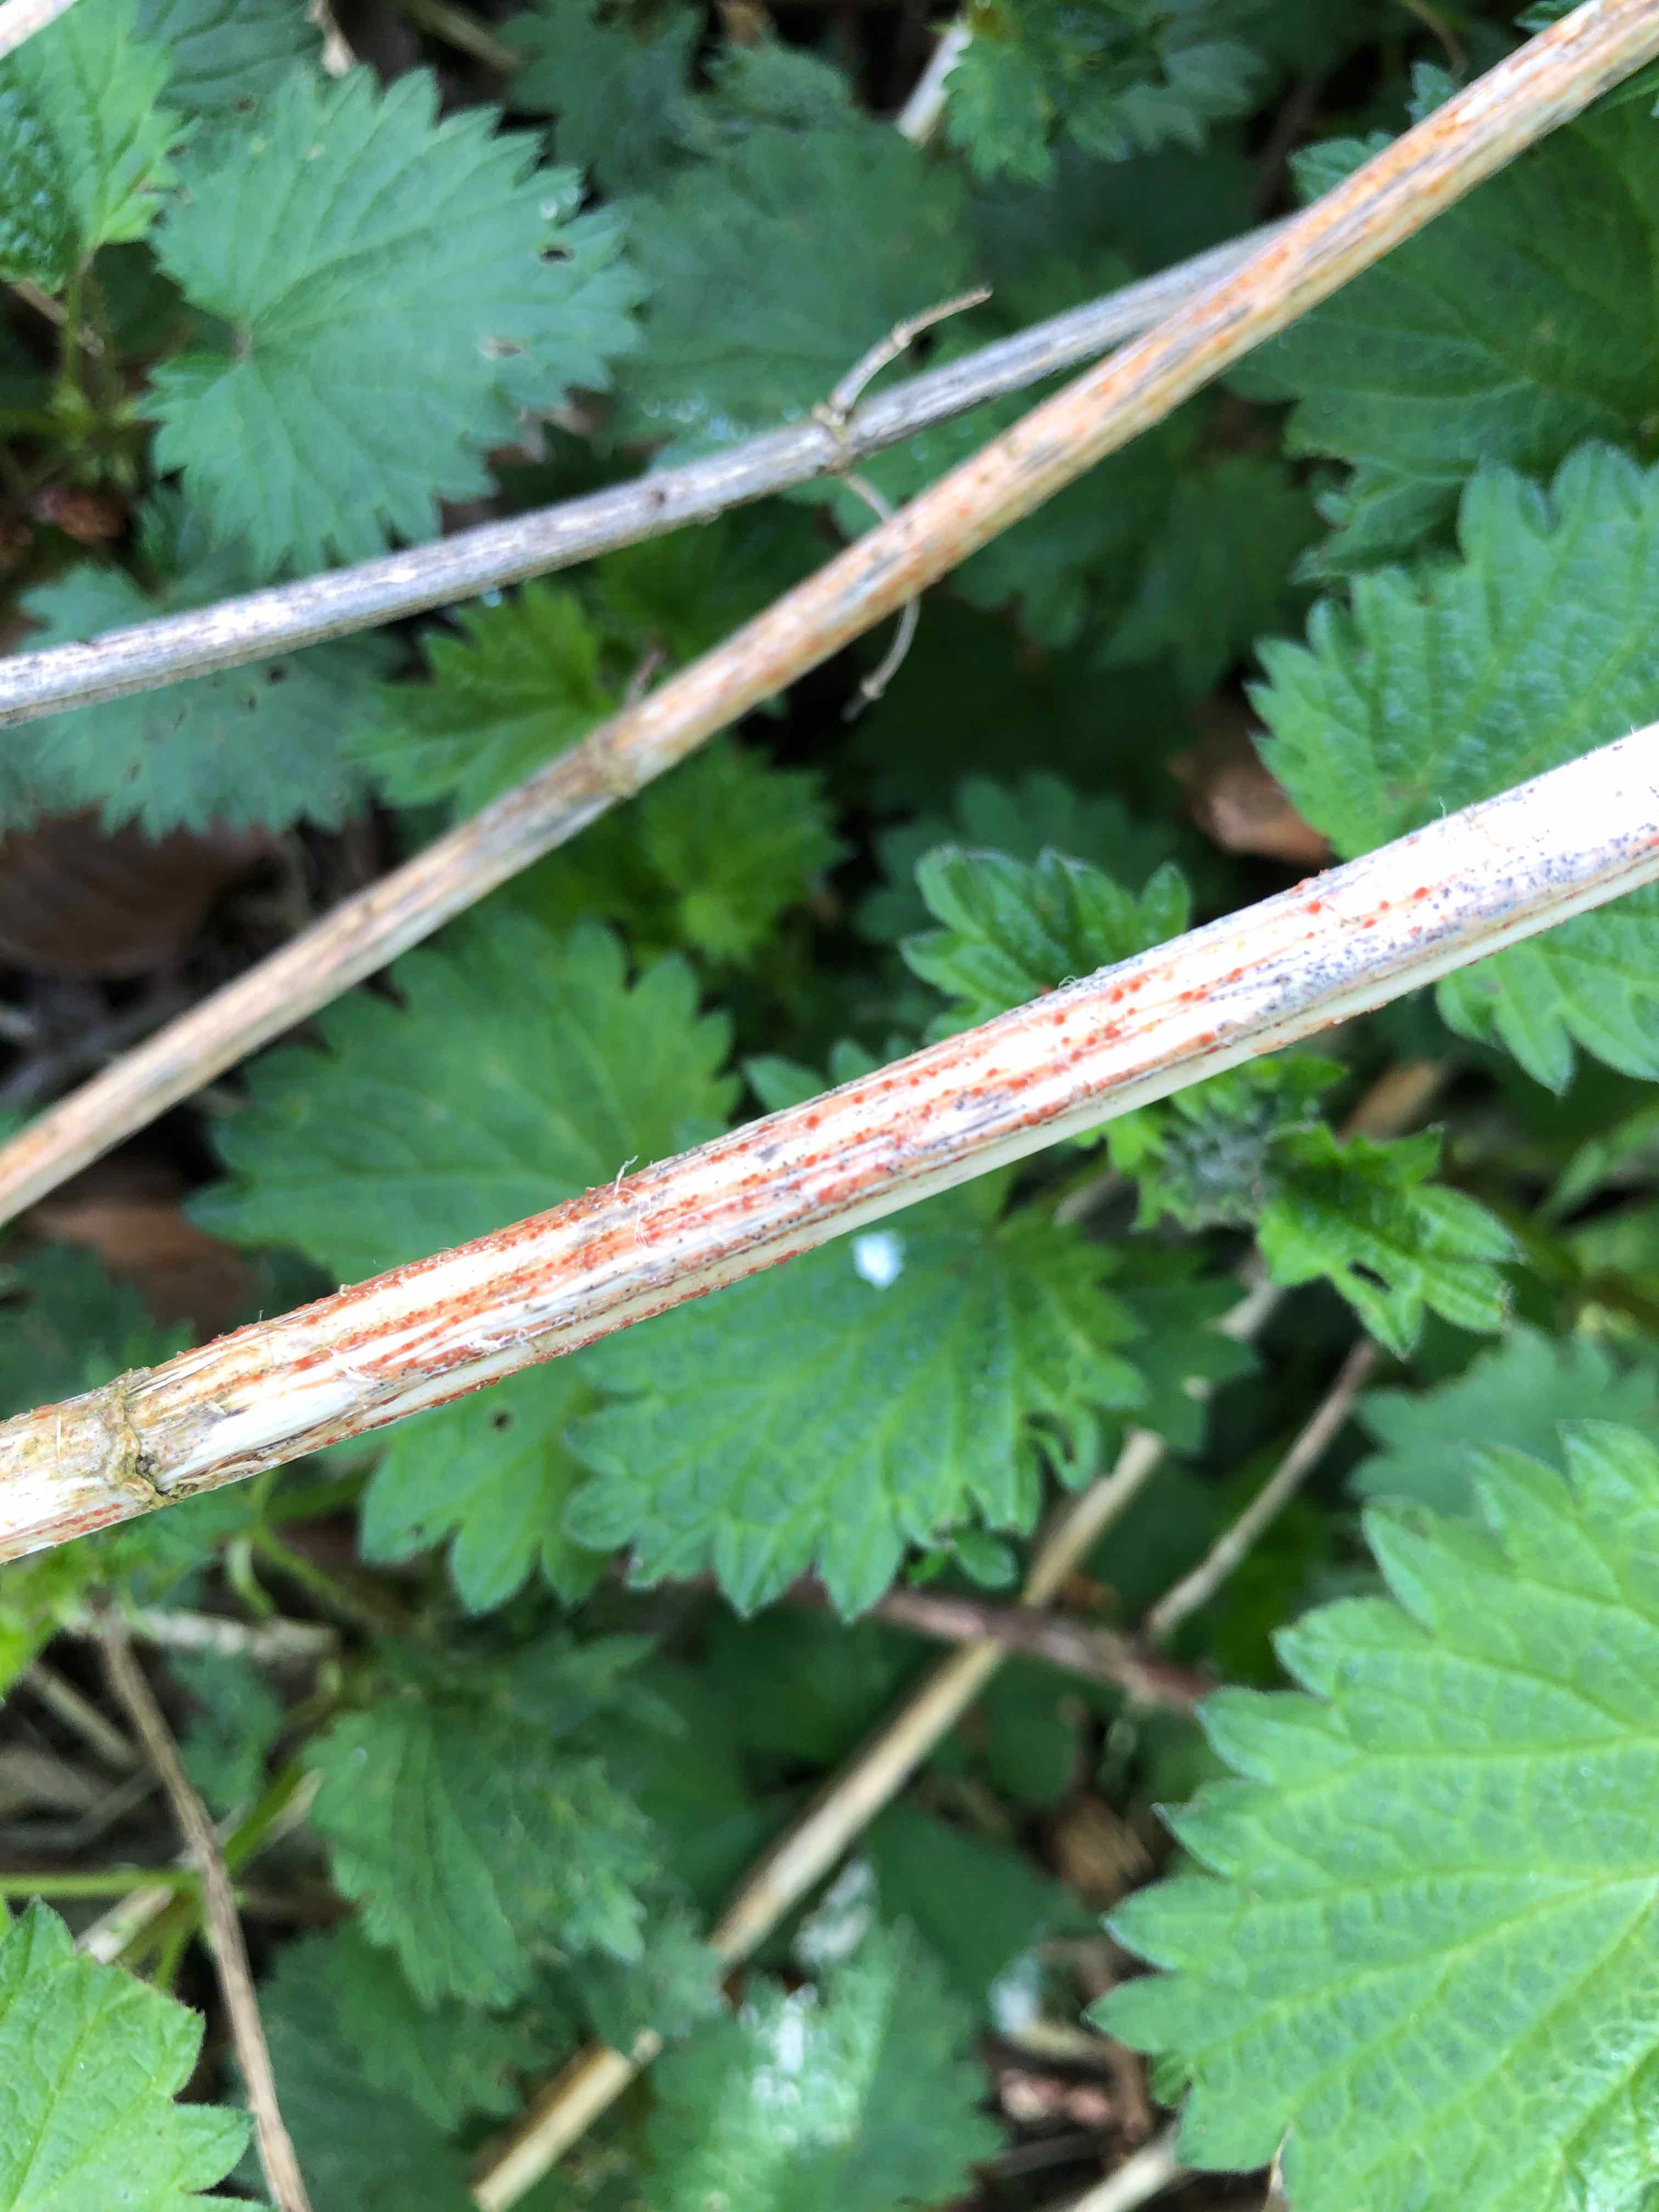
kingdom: Fungi
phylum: Ascomycota
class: Leotiomycetes
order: Helotiales
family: Calloriaceae
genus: Calloria
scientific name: Calloria urticae
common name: nælde-orangeskive
